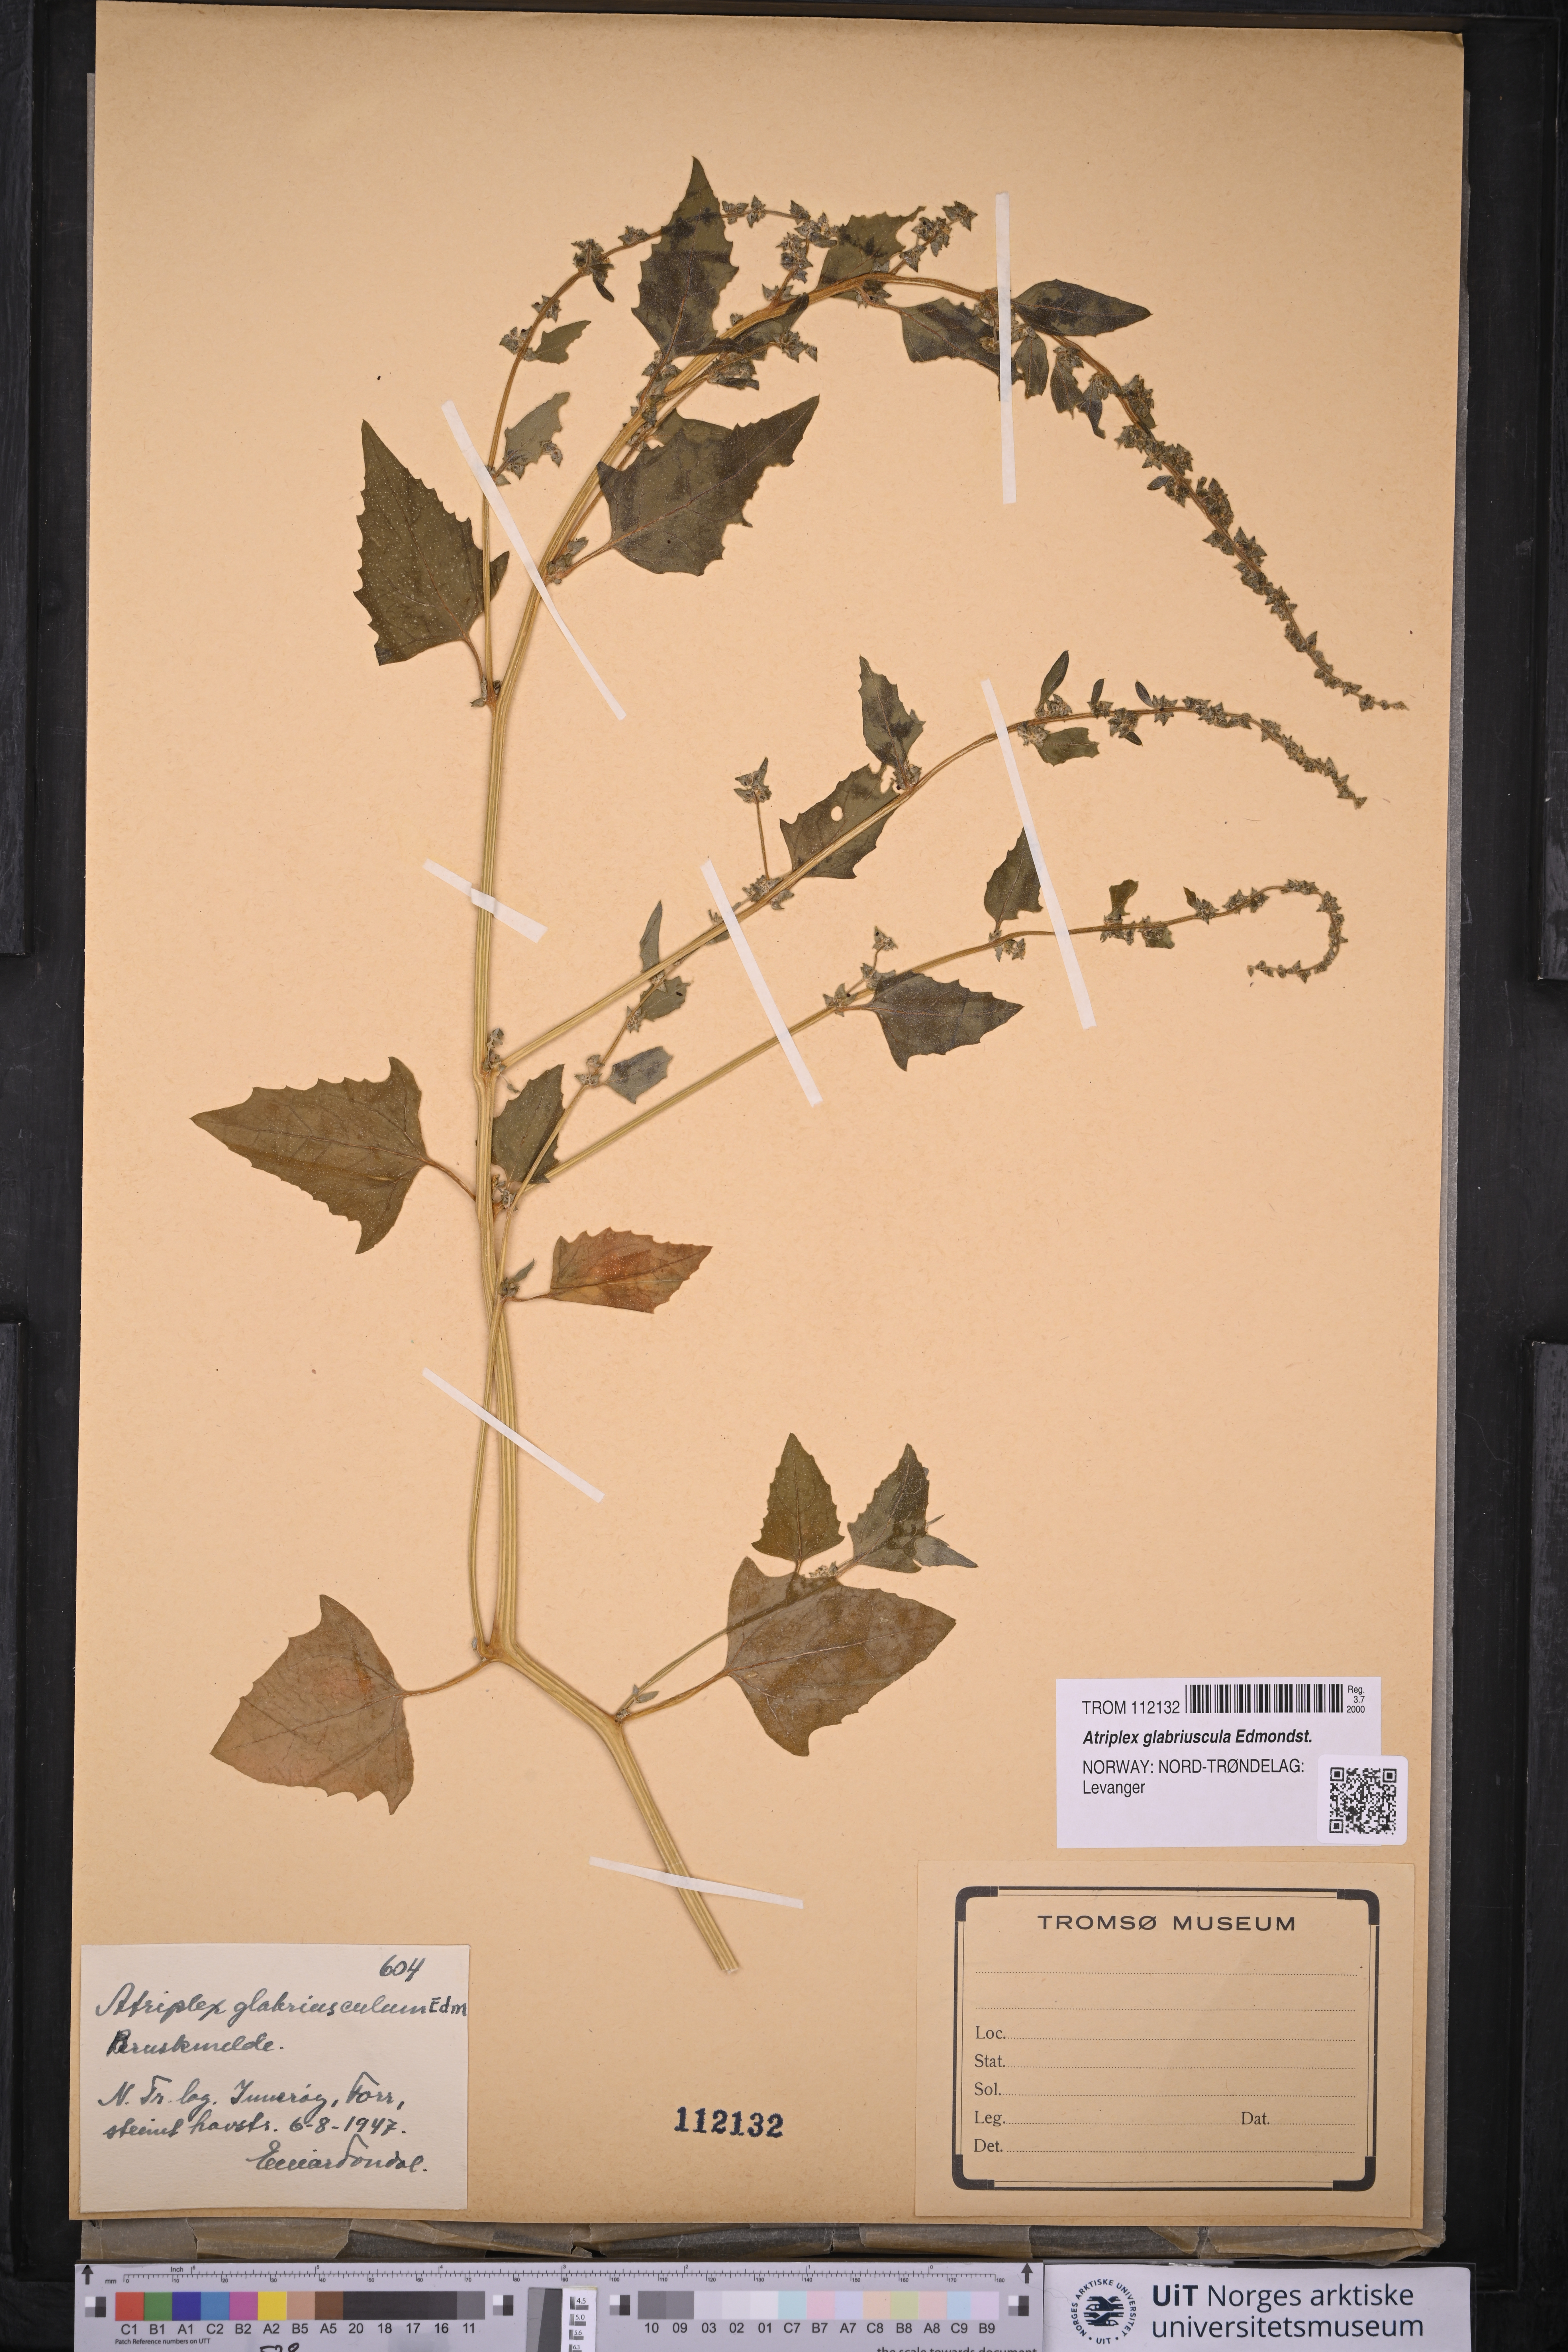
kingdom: Plantae
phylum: Tracheophyta
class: Magnoliopsida
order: Caryophyllales
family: Amaranthaceae
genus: Atriplex
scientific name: Atriplex glabriuscula
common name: Babington's orache
